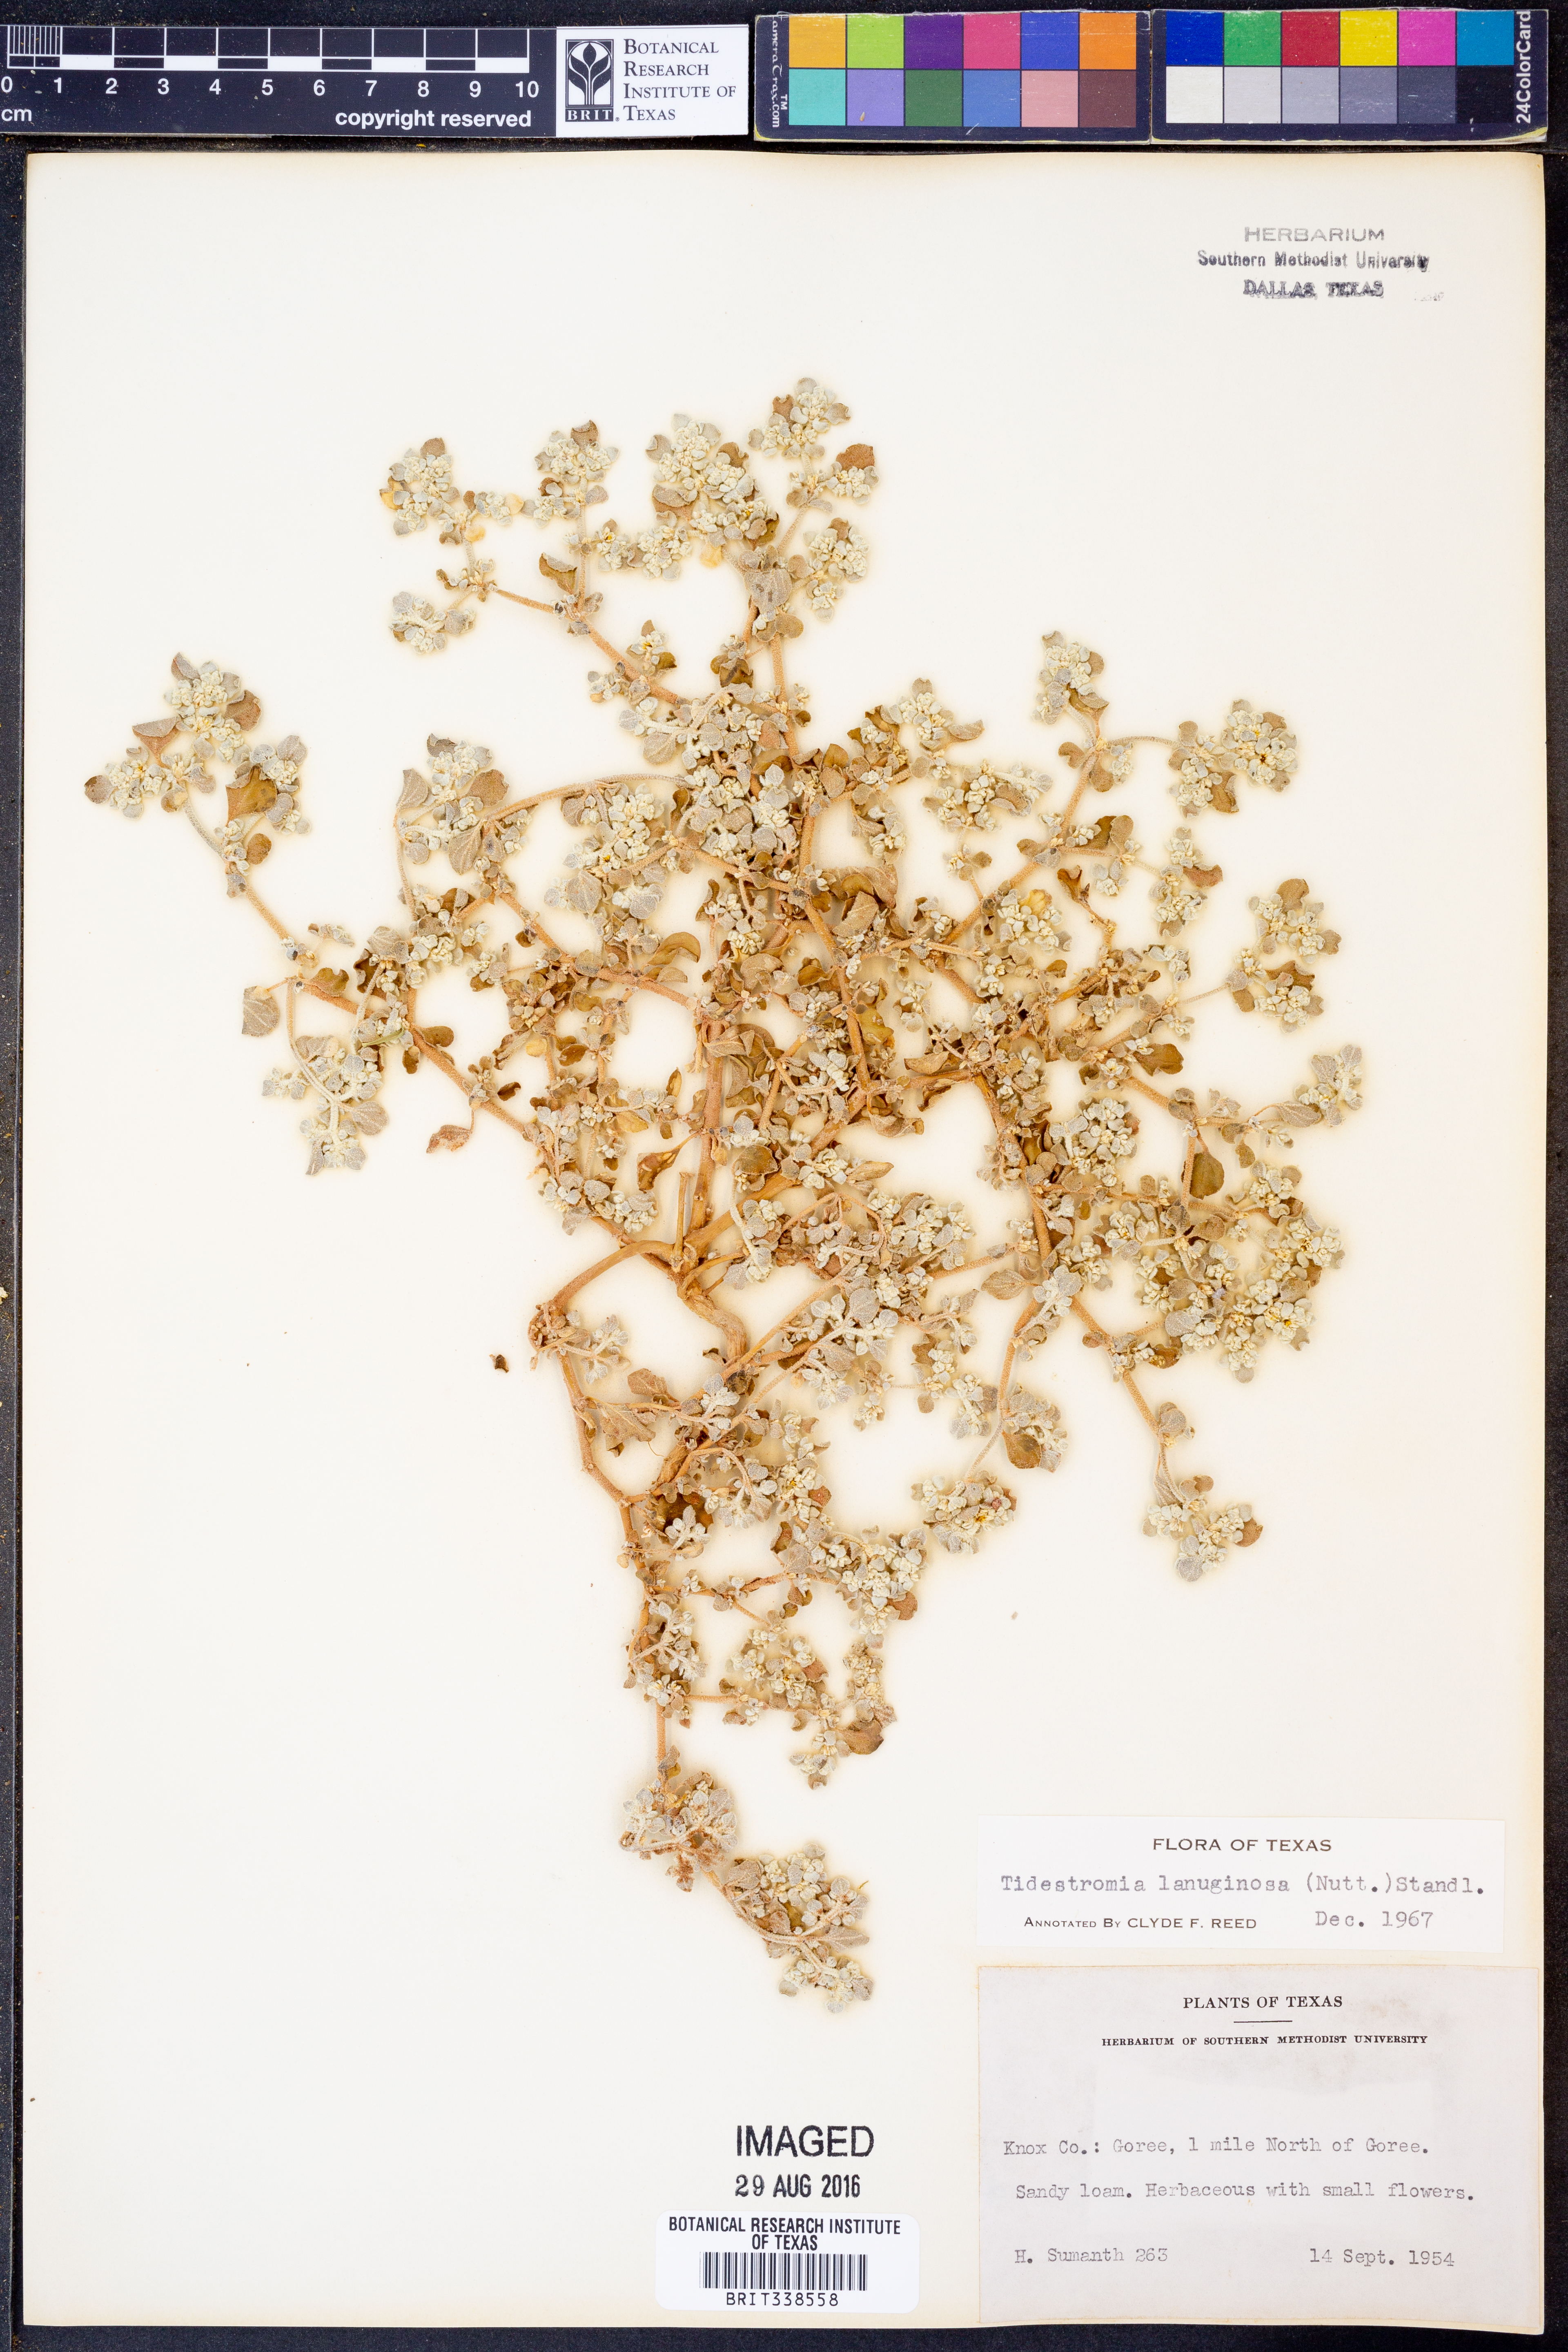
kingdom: Plantae
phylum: Tracheophyta
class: Magnoliopsida
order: Caryophyllales
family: Amaranthaceae
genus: Tidestromia
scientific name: Tidestromia lanuginosa
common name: Woolly tidestromia
